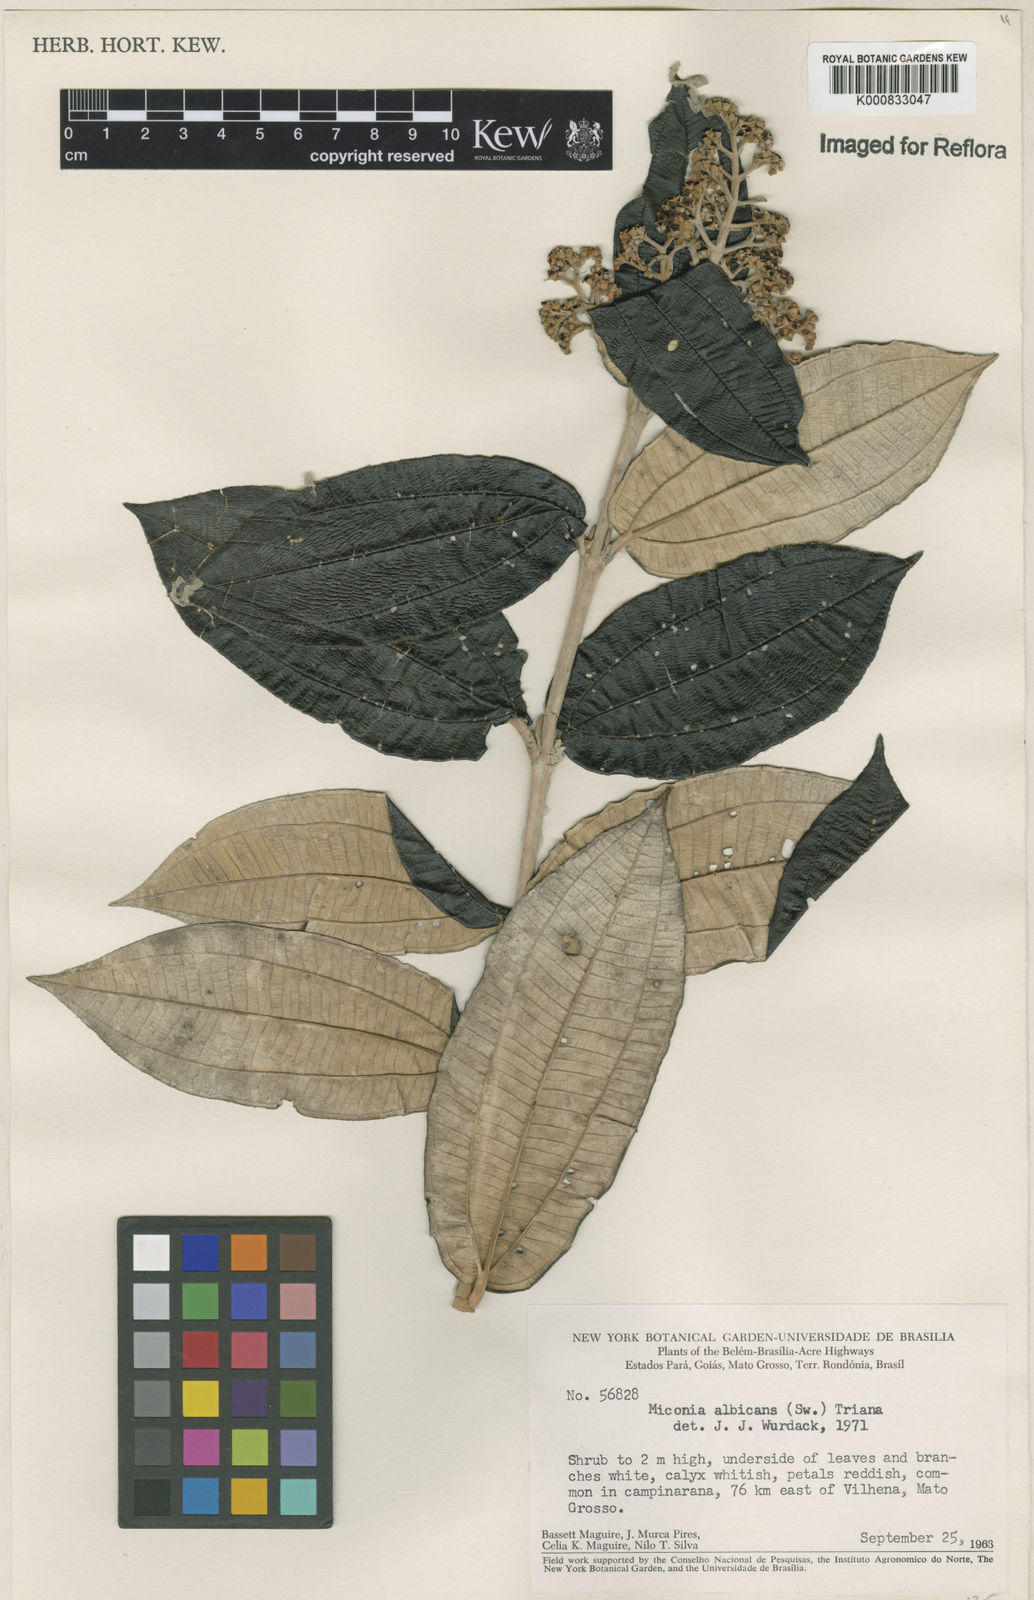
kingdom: Plantae
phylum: Tracheophyta
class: Magnoliopsida
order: Myrtales
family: Melastomataceae
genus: Miconia
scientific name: Miconia albicans
